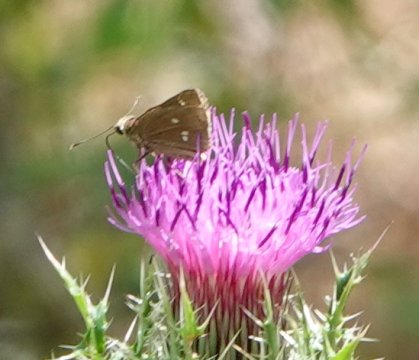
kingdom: Animalia
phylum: Arthropoda
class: Insecta
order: Lepidoptera
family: Hesperiidae
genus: Oligoria
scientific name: Oligoria maculata
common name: Twin-spot Skipper
